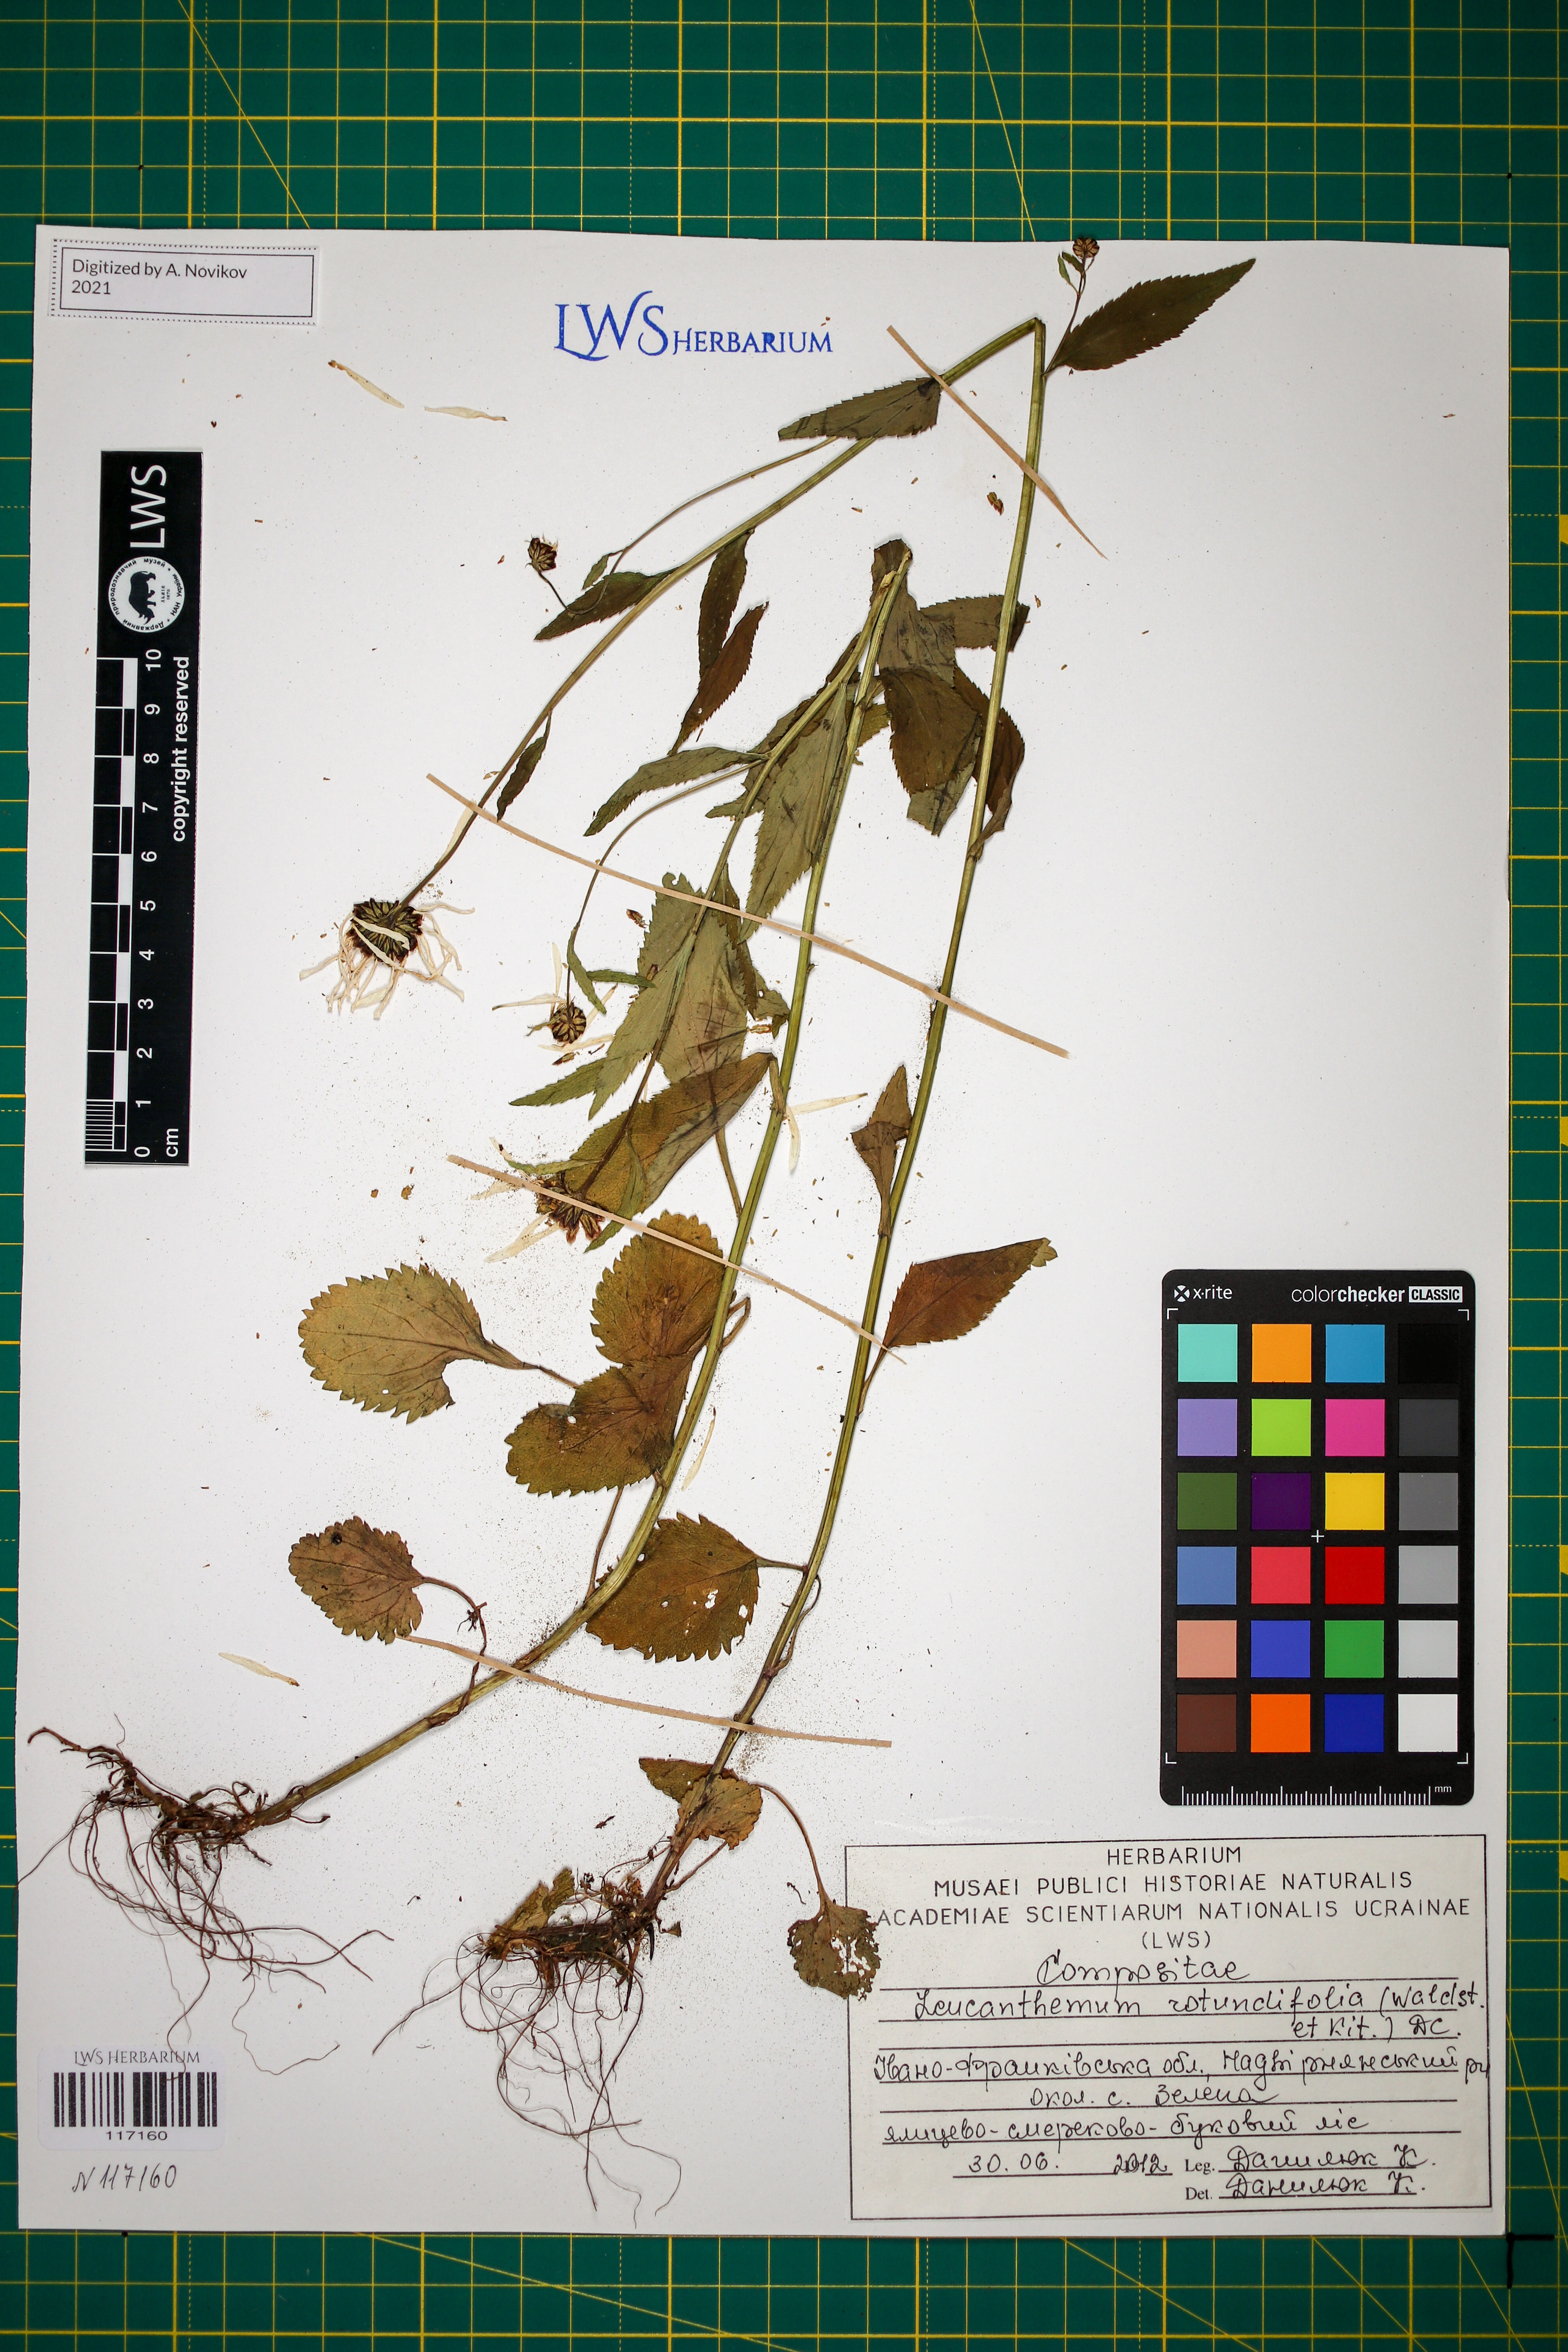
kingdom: Plantae
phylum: Tracheophyta
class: Magnoliopsida
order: Asterales
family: Asteraceae
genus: Leucanthemum
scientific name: Leucanthemum rotundifolium
